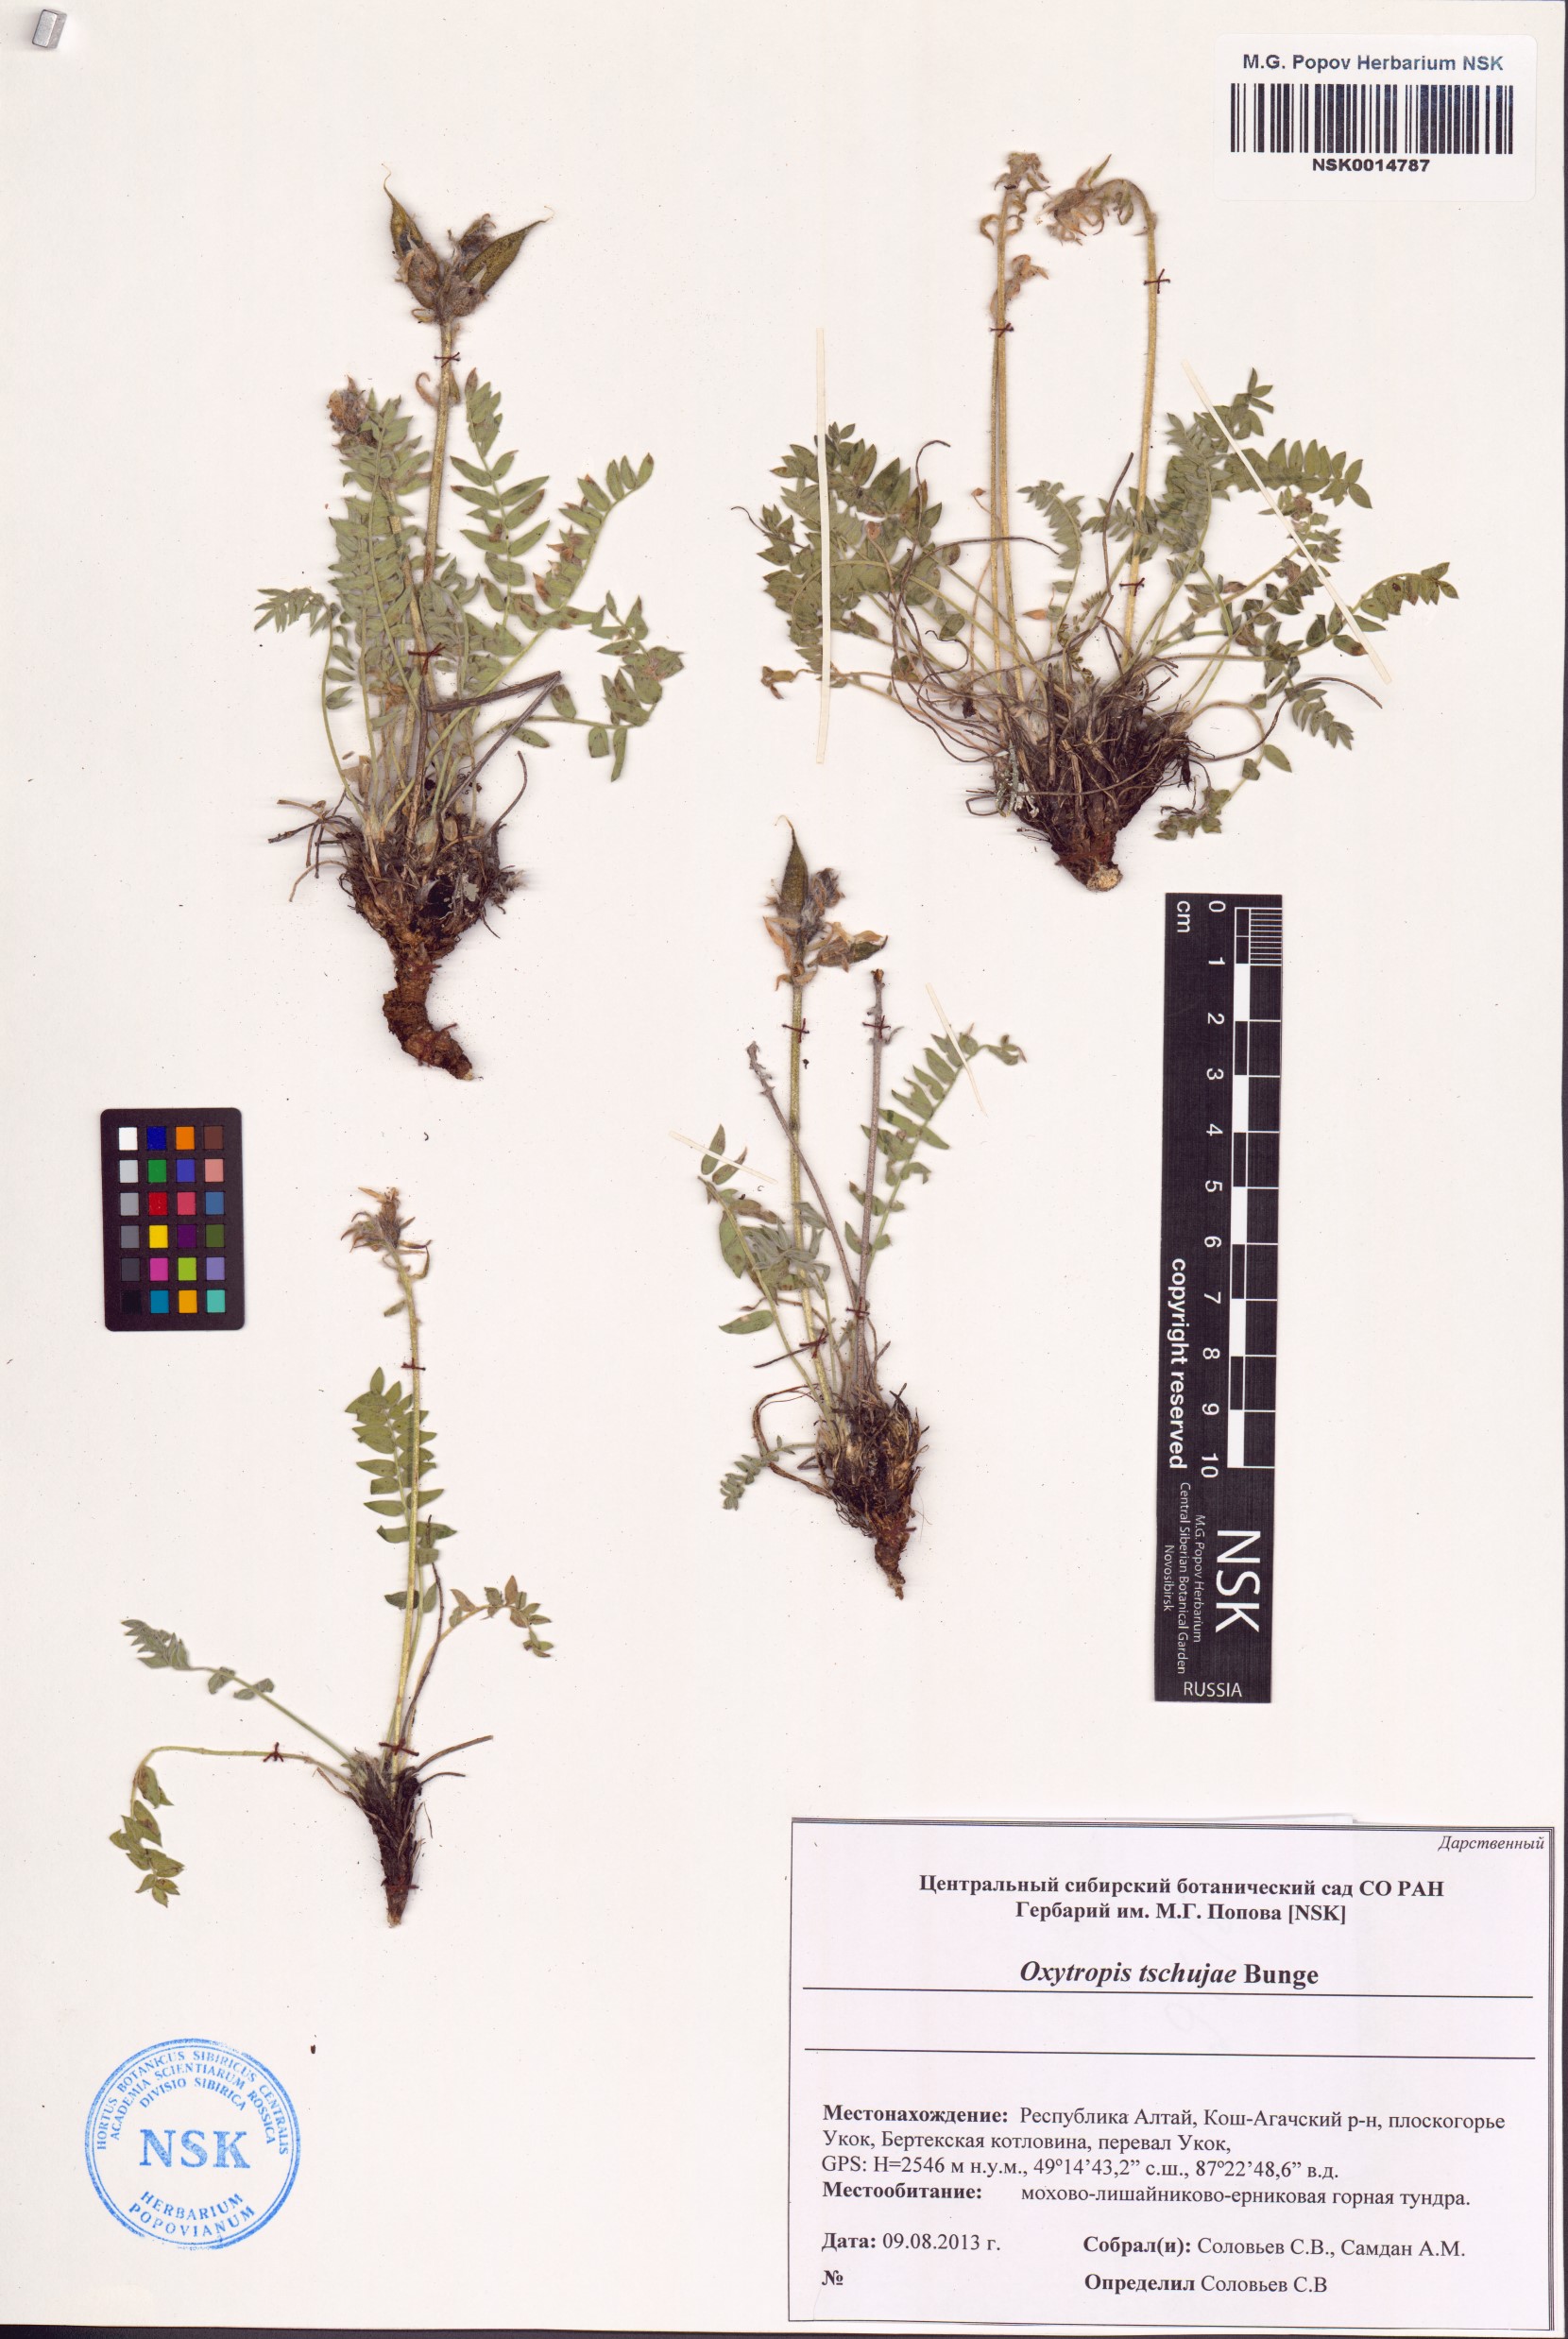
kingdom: Plantae
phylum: Tracheophyta
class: Magnoliopsida
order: Fabales
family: Fabaceae
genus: Oxytropis
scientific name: Oxytropis tschujae
